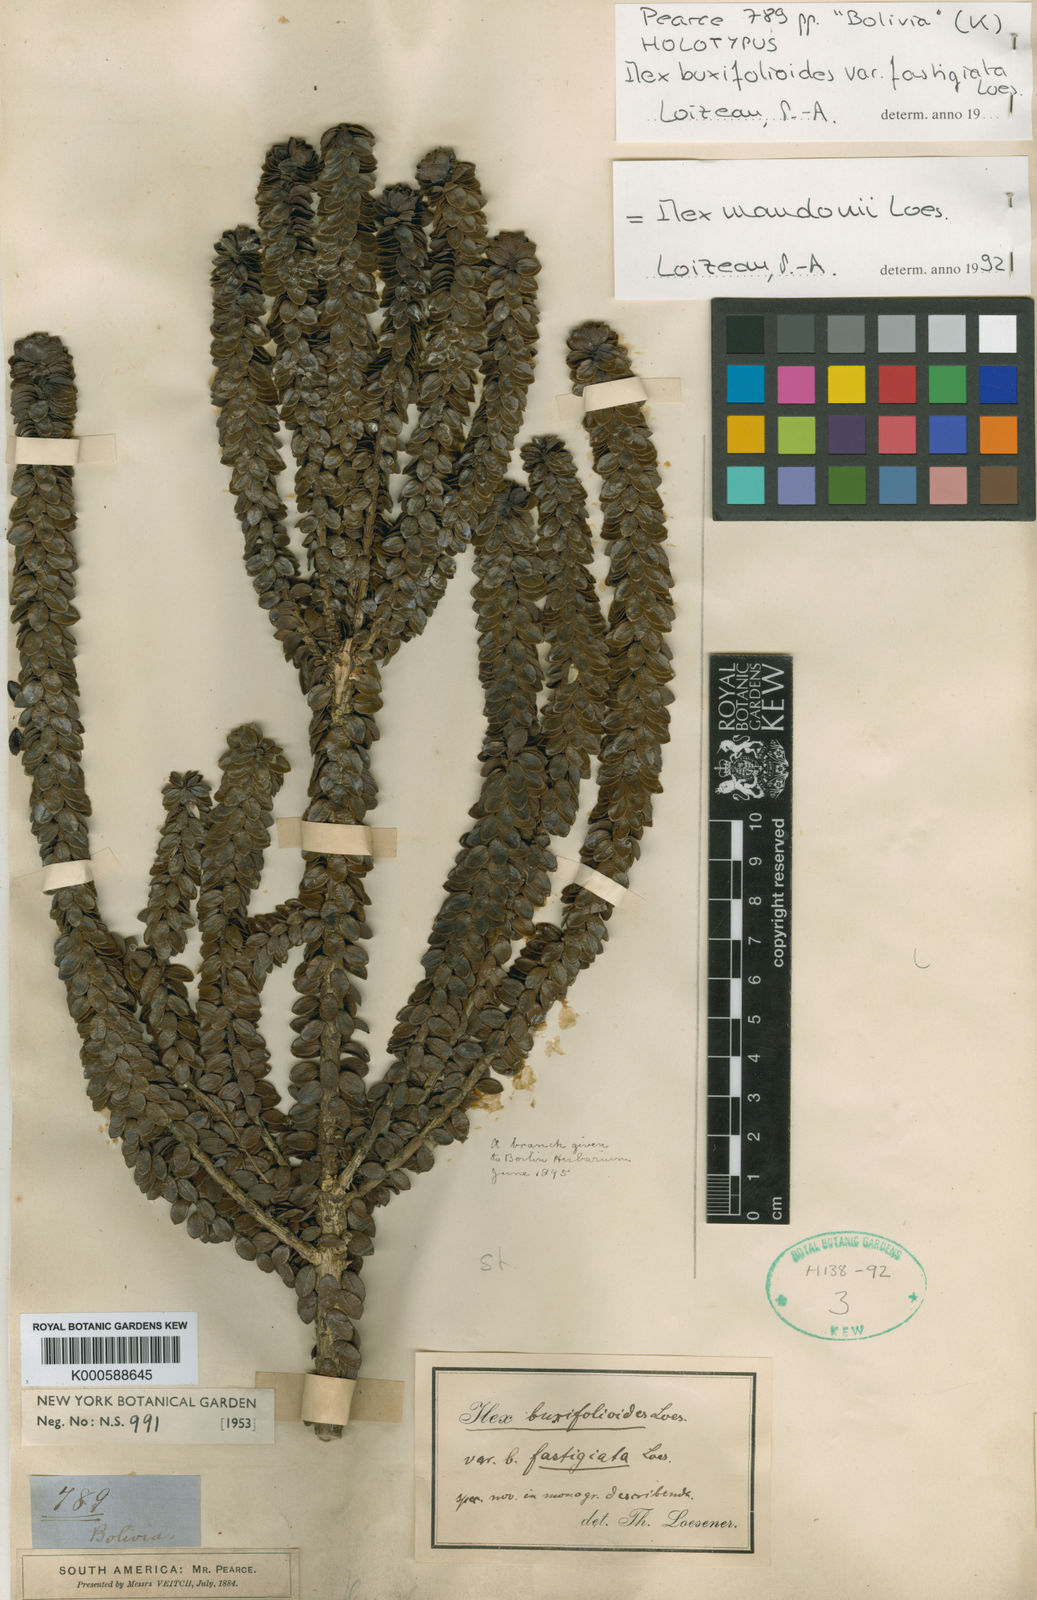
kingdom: Plantae
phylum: Tracheophyta
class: Magnoliopsida
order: Aquifoliales
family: Aquifoliaceae
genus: Ilex
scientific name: Ilex mandonii
